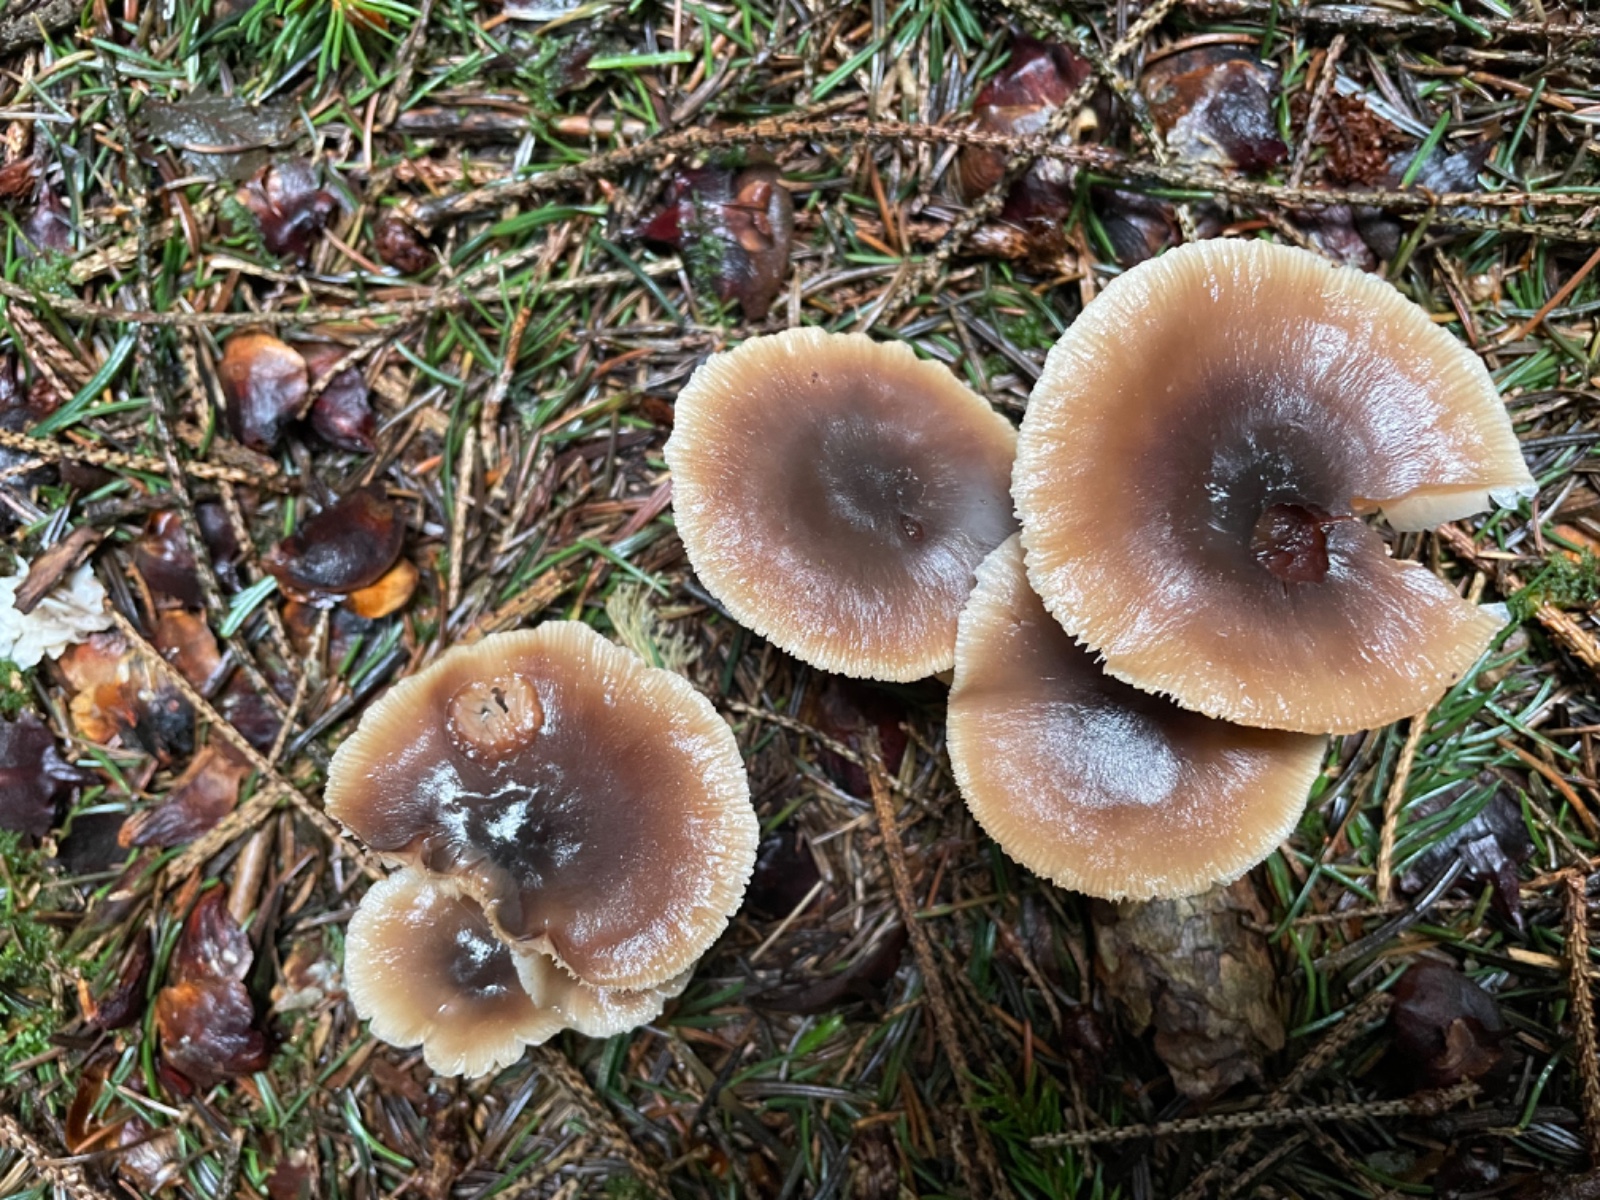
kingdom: Fungi
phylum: Basidiomycota
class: Agaricomycetes
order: Agaricales
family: Omphalotaceae
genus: Rhodocollybia
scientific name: Rhodocollybia asema
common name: horngrå fladhat
